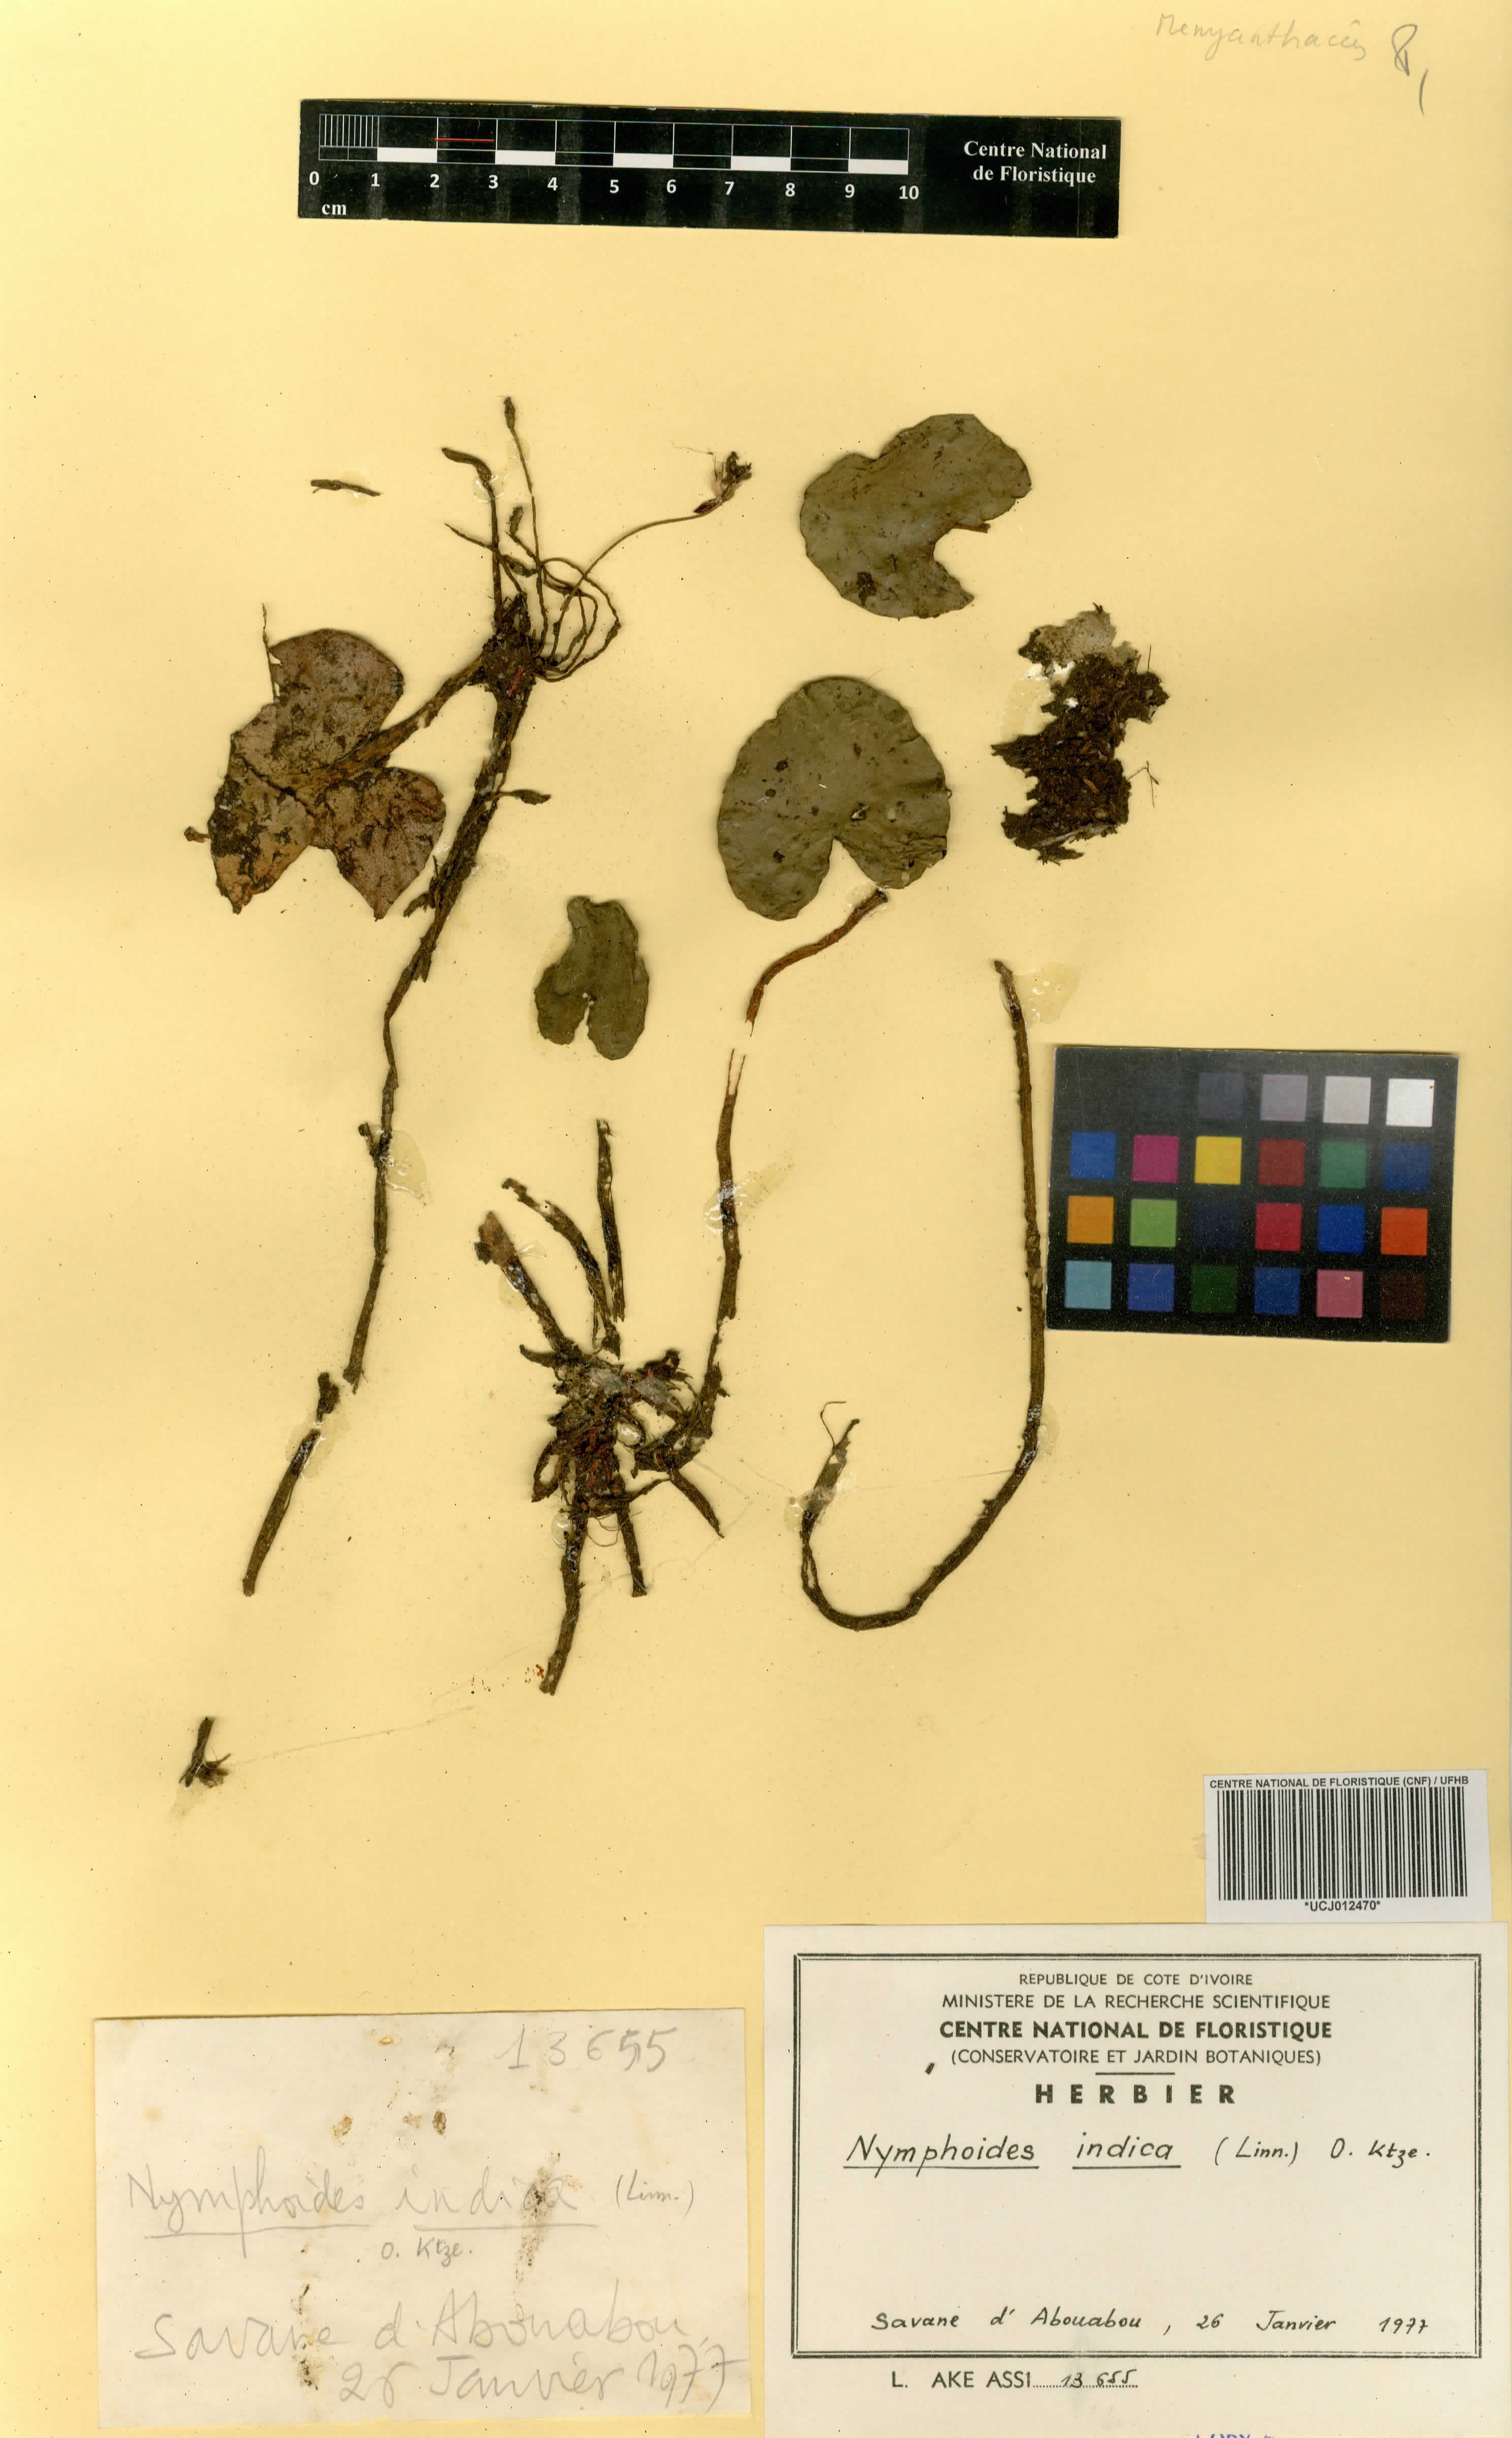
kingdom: Plantae
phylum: Tracheophyta
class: Magnoliopsida
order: Asterales
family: Menyanthaceae
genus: Nymphoides
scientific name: Nymphoides indica
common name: Water-snowflake
